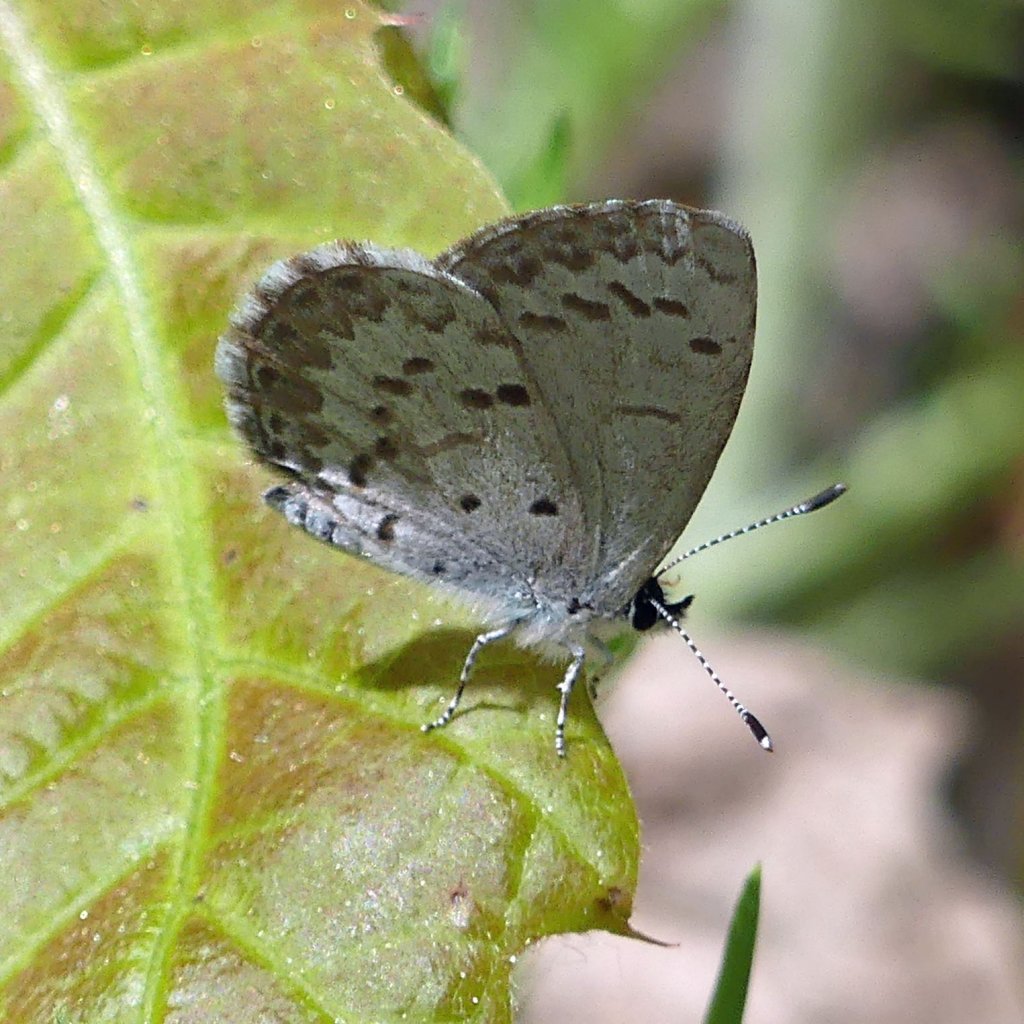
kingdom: Animalia
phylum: Arthropoda
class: Insecta
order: Lepidoptera
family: Lycaenidae
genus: Celastrina
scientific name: Celastrina lucia
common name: Northern Spring Azure
